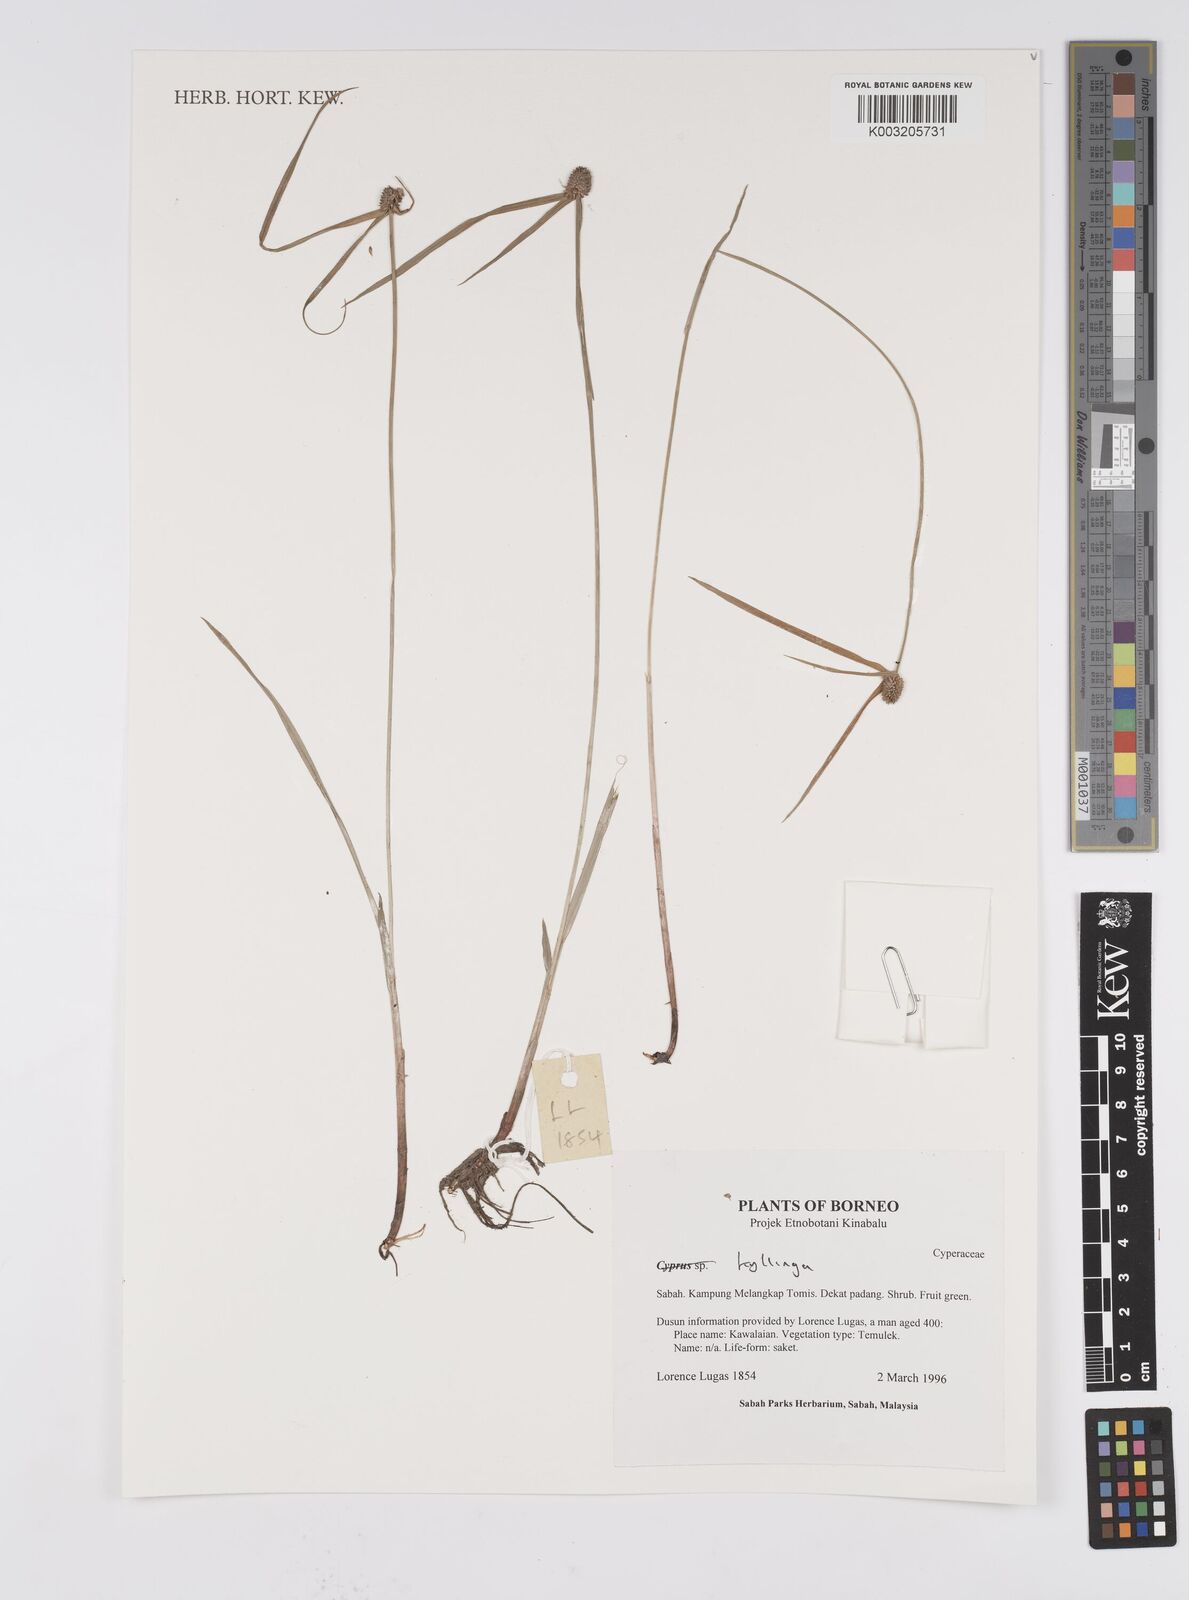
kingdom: Plantae
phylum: Tracheophyta
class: Liliopsida
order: Poales
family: Cyperaceae
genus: Cyperus
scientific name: Cyperus
